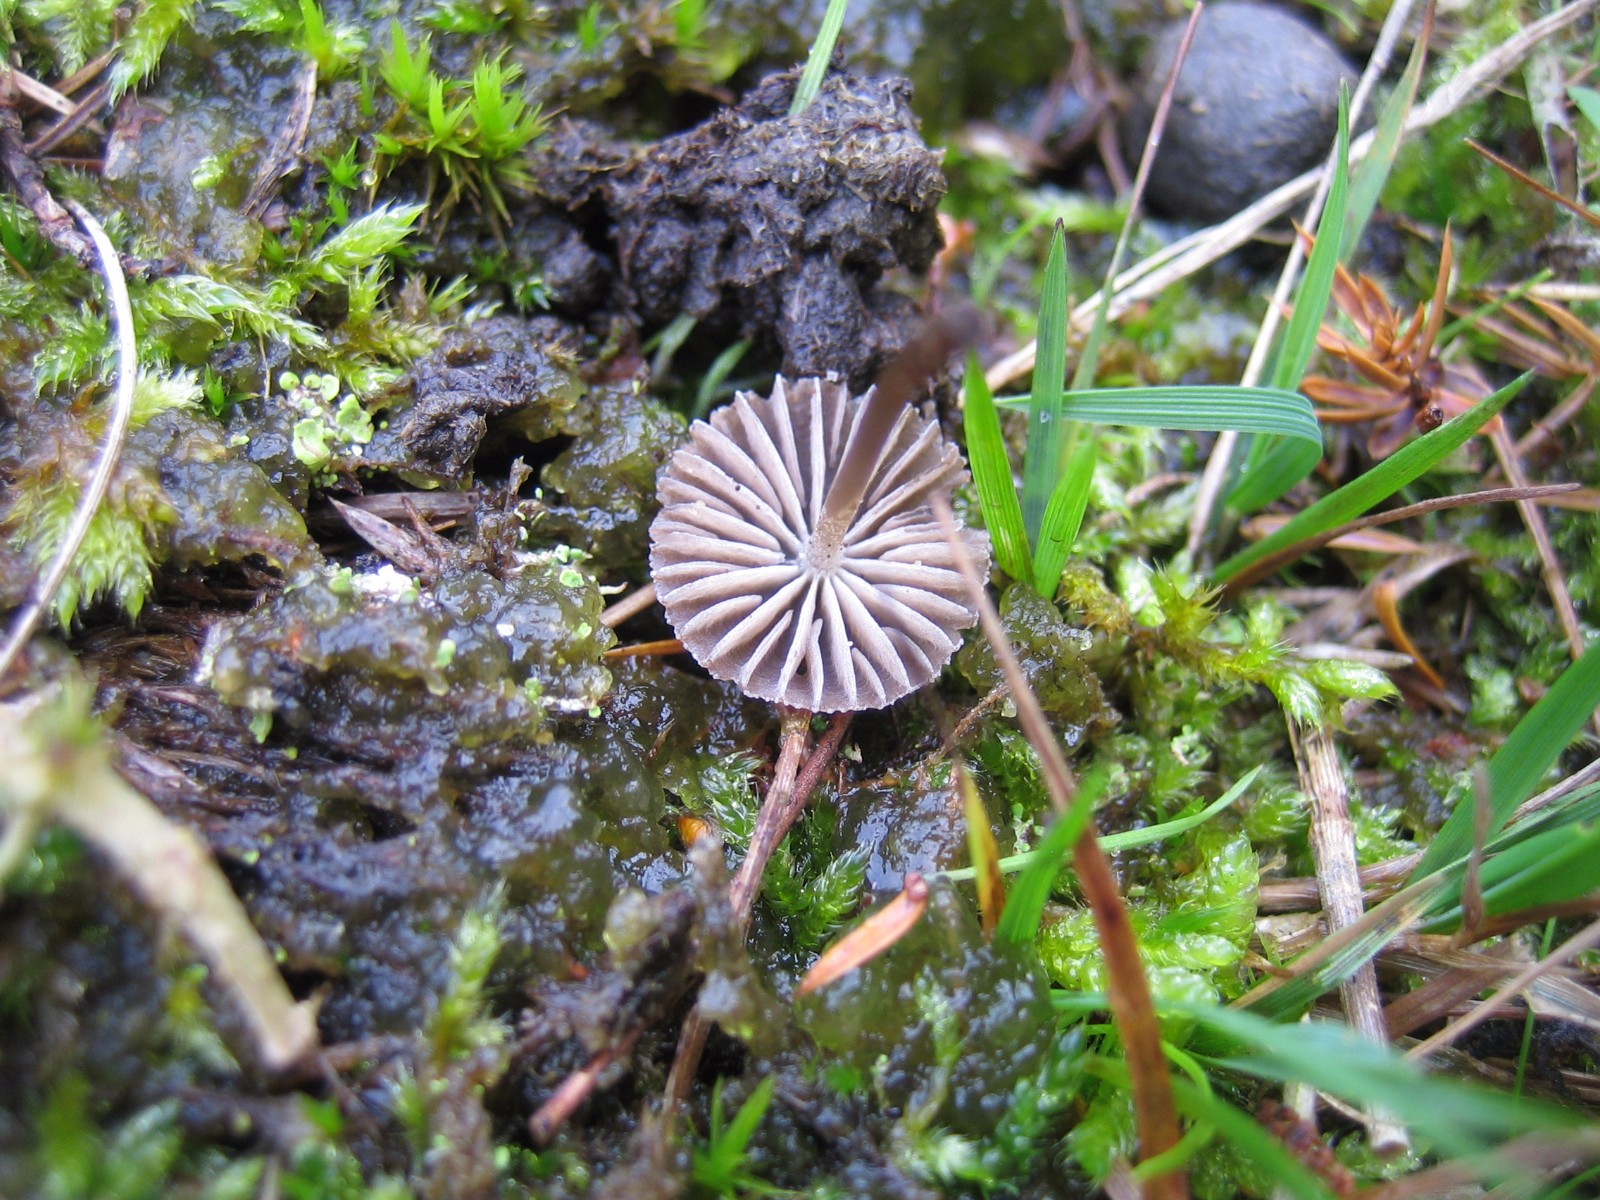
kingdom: Fungi
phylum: Basidiomycota
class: Agaricomycetes
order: Agaricales
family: Mycenaceae
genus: Mycena
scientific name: Mycena
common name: huesvamp
